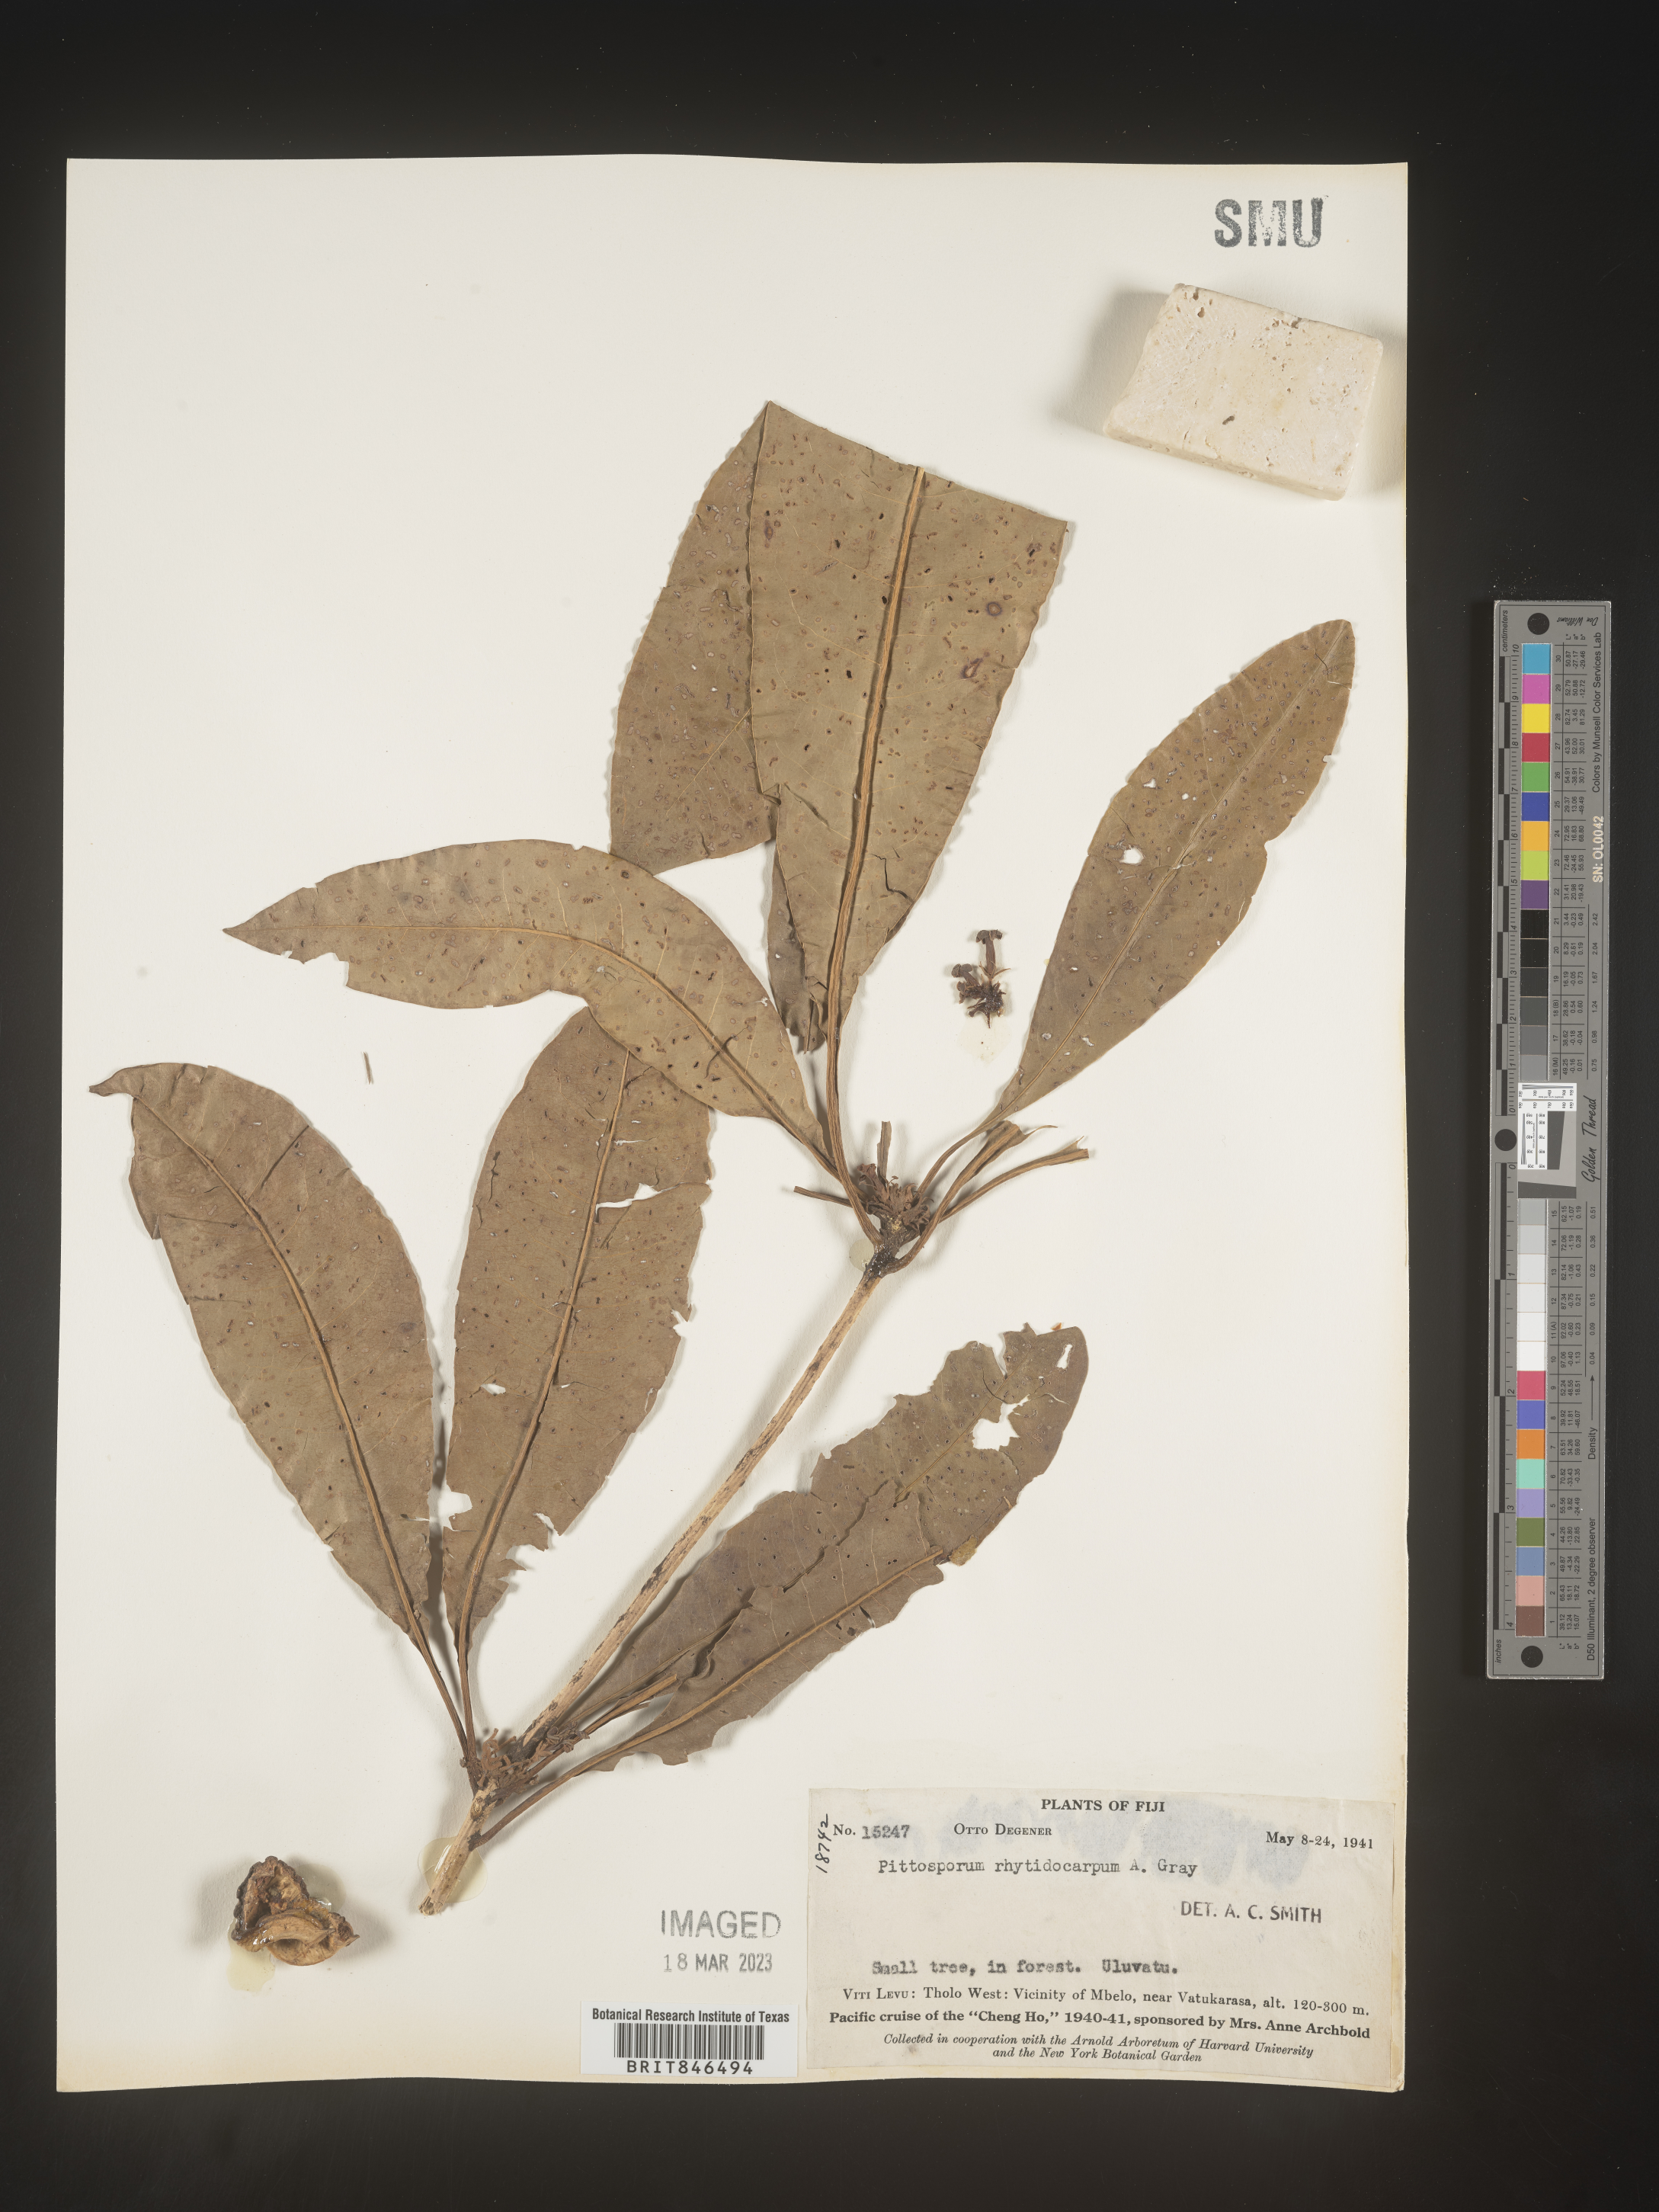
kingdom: Plantae
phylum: Tracheophyta
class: Magnoliopsida
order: Apiales
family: Pittosporaceae
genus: Pittosporum
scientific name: Pittosporum
